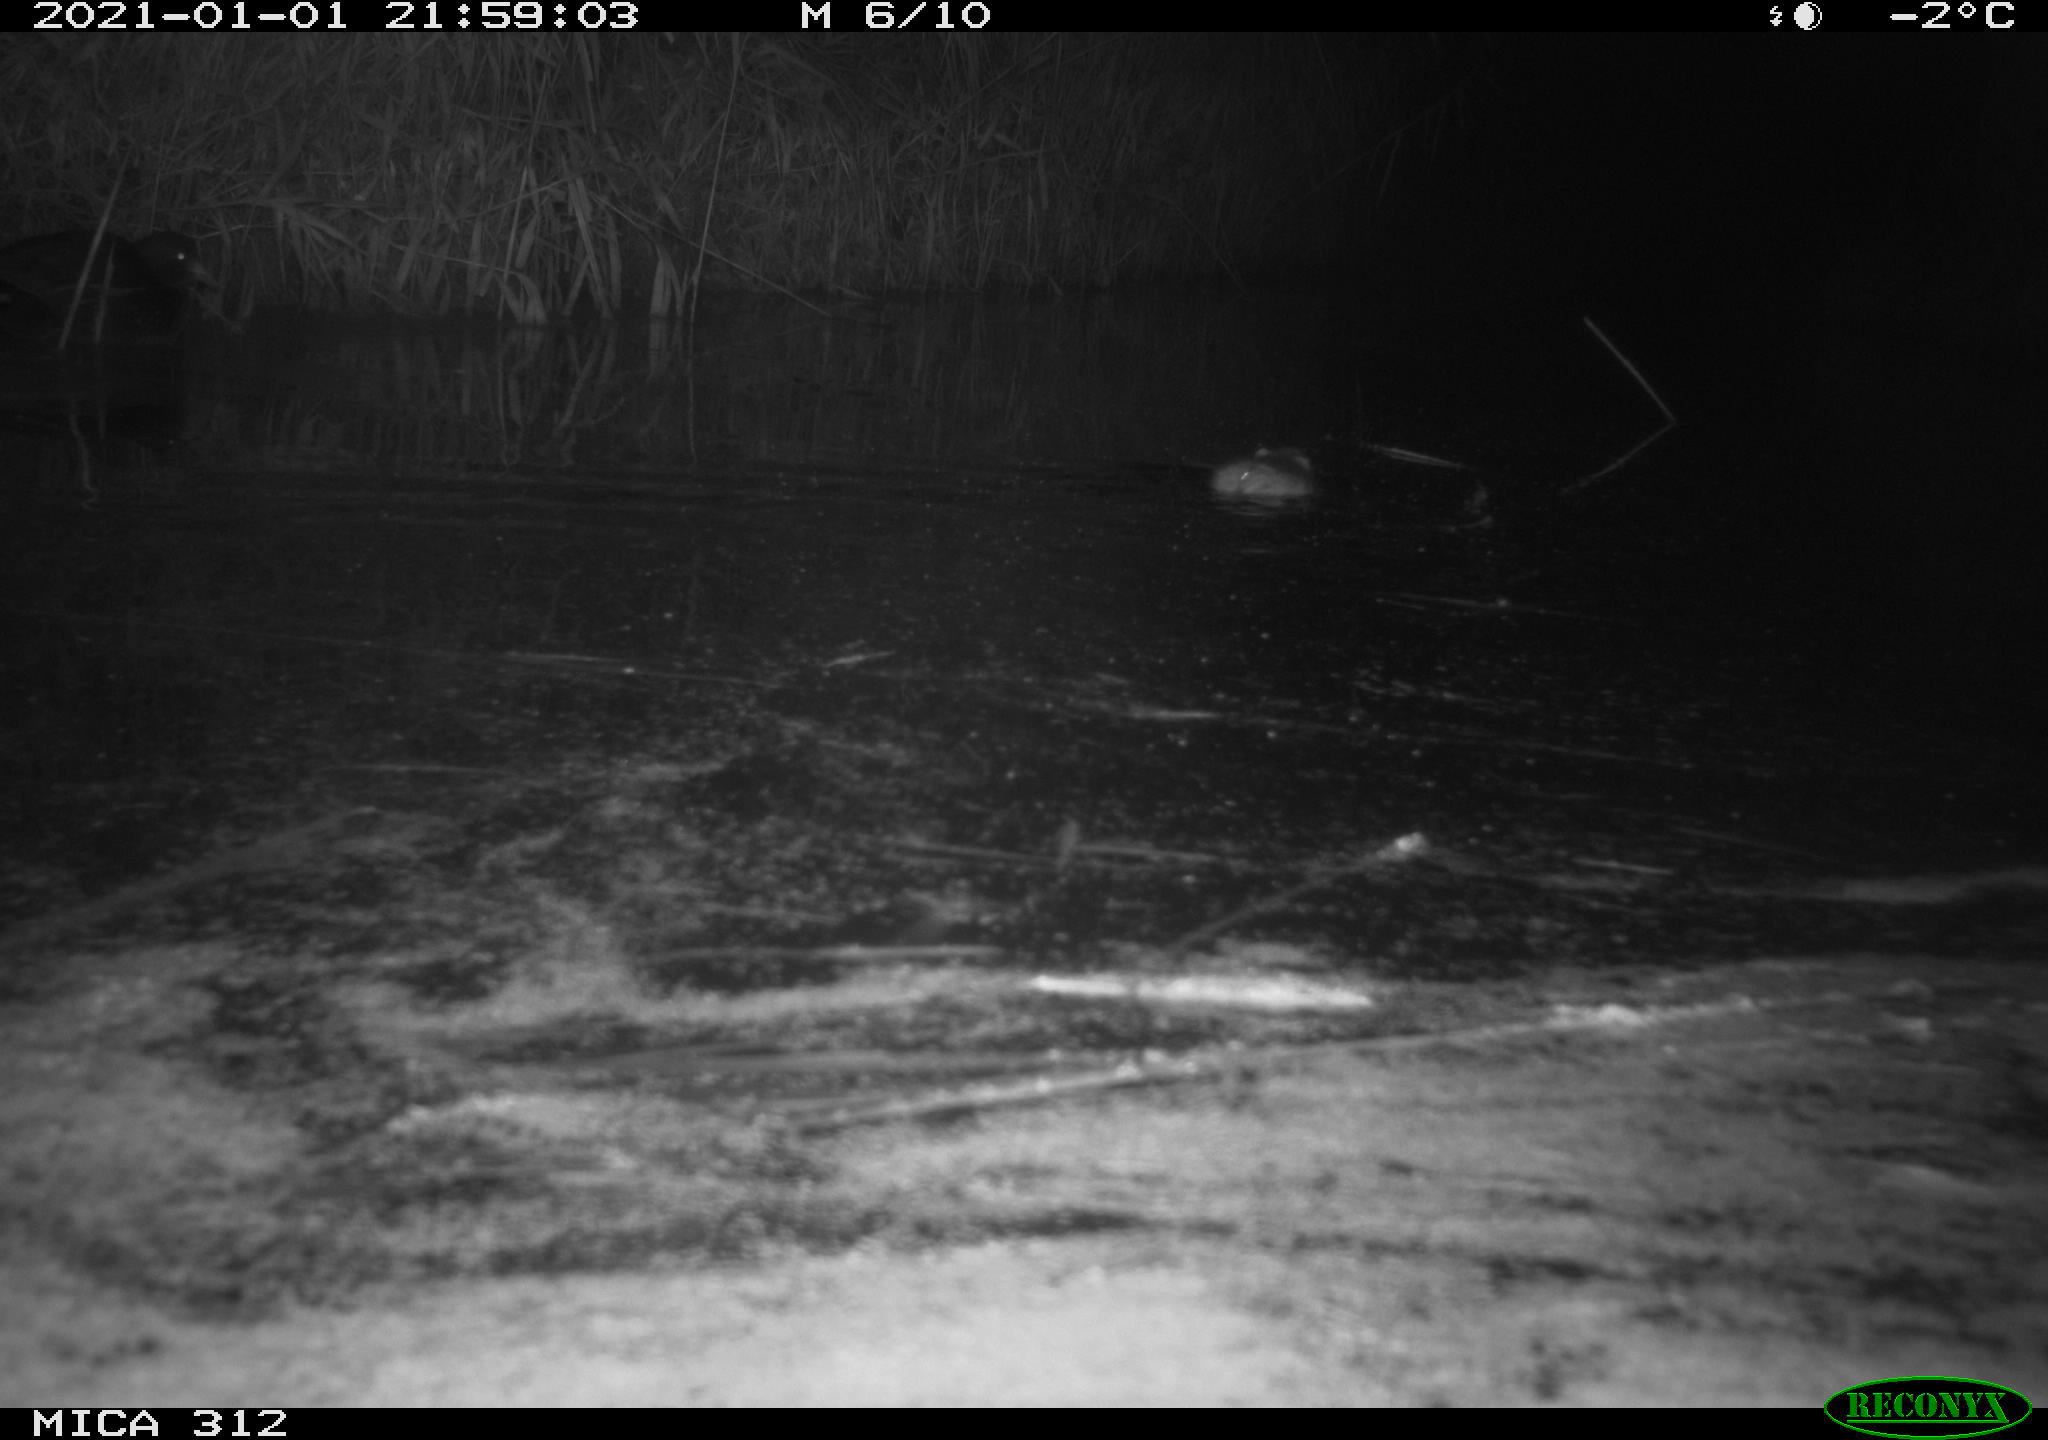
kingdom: Animalia
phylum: Chordata
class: Mammalia
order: Rodentia
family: Muridae
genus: Rattus
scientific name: Rattus norvegicus
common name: Brown rat
